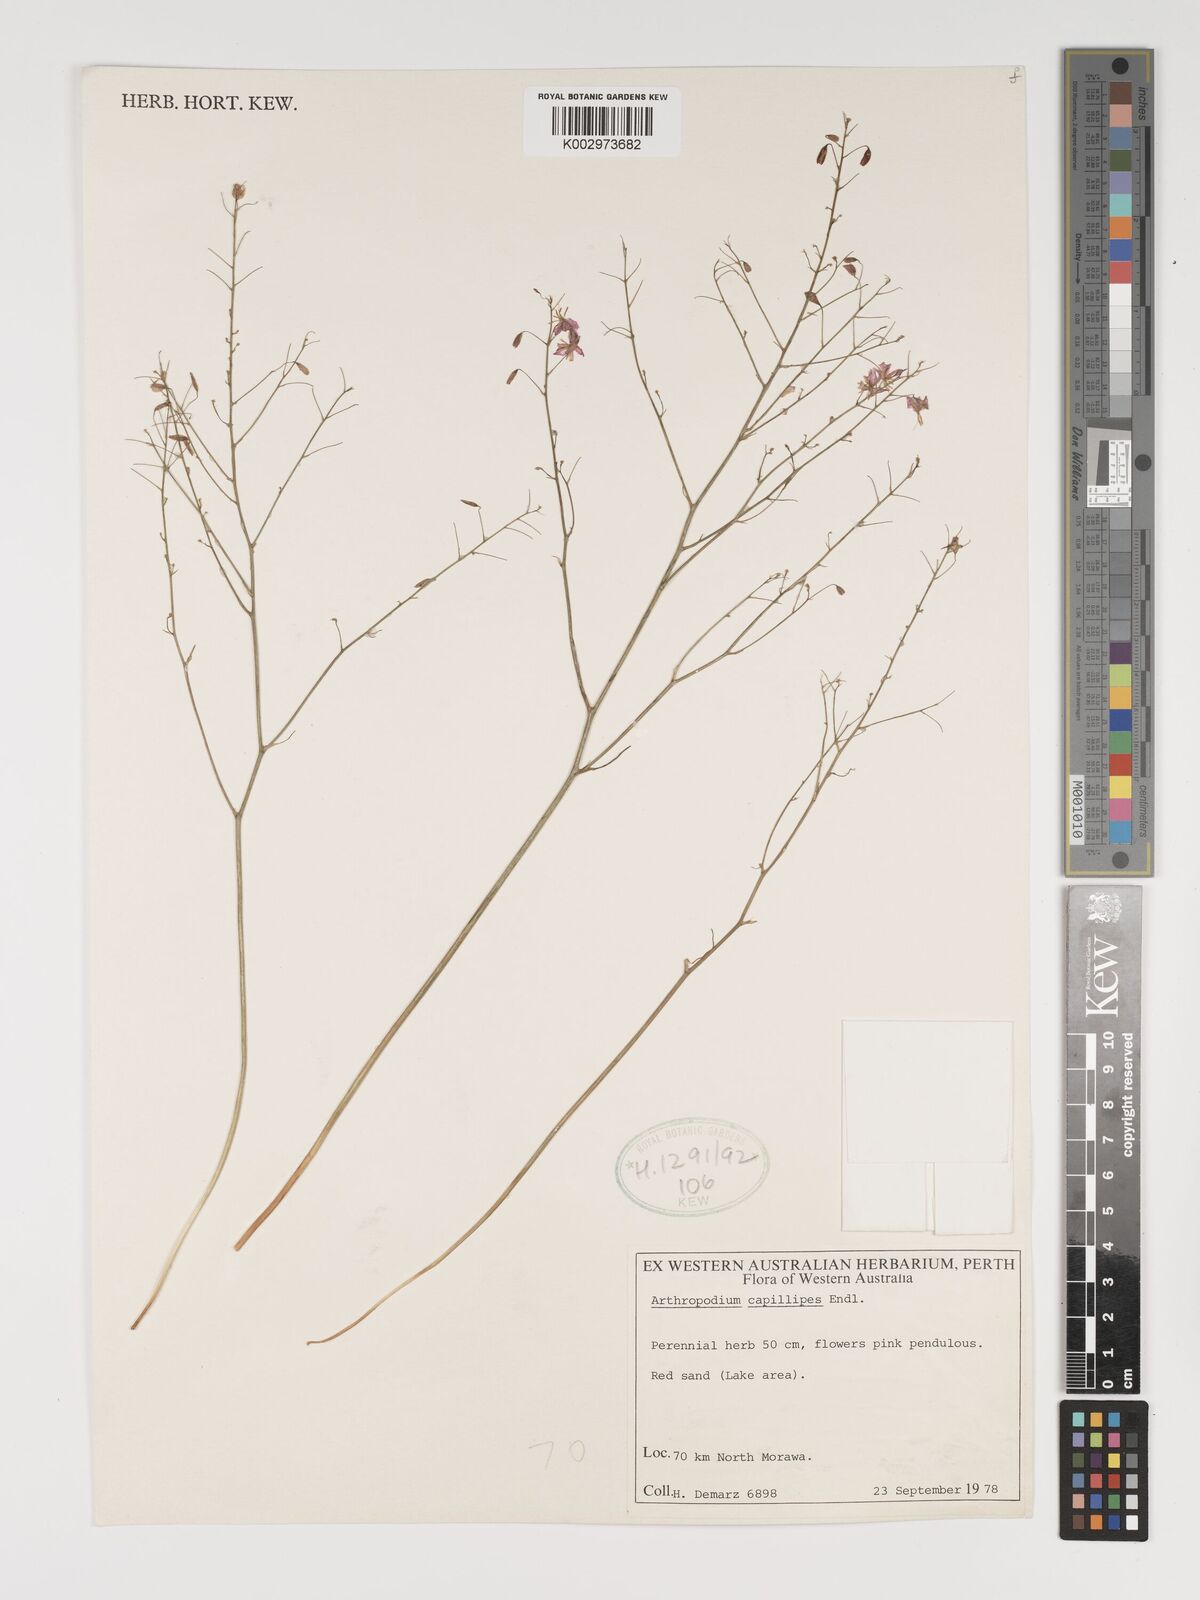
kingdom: Plantae
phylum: Tracheophyta
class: Liliopsida
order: Asparagales
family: Asparagaceae
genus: Dichopogon
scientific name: Dichopogon capillipes
